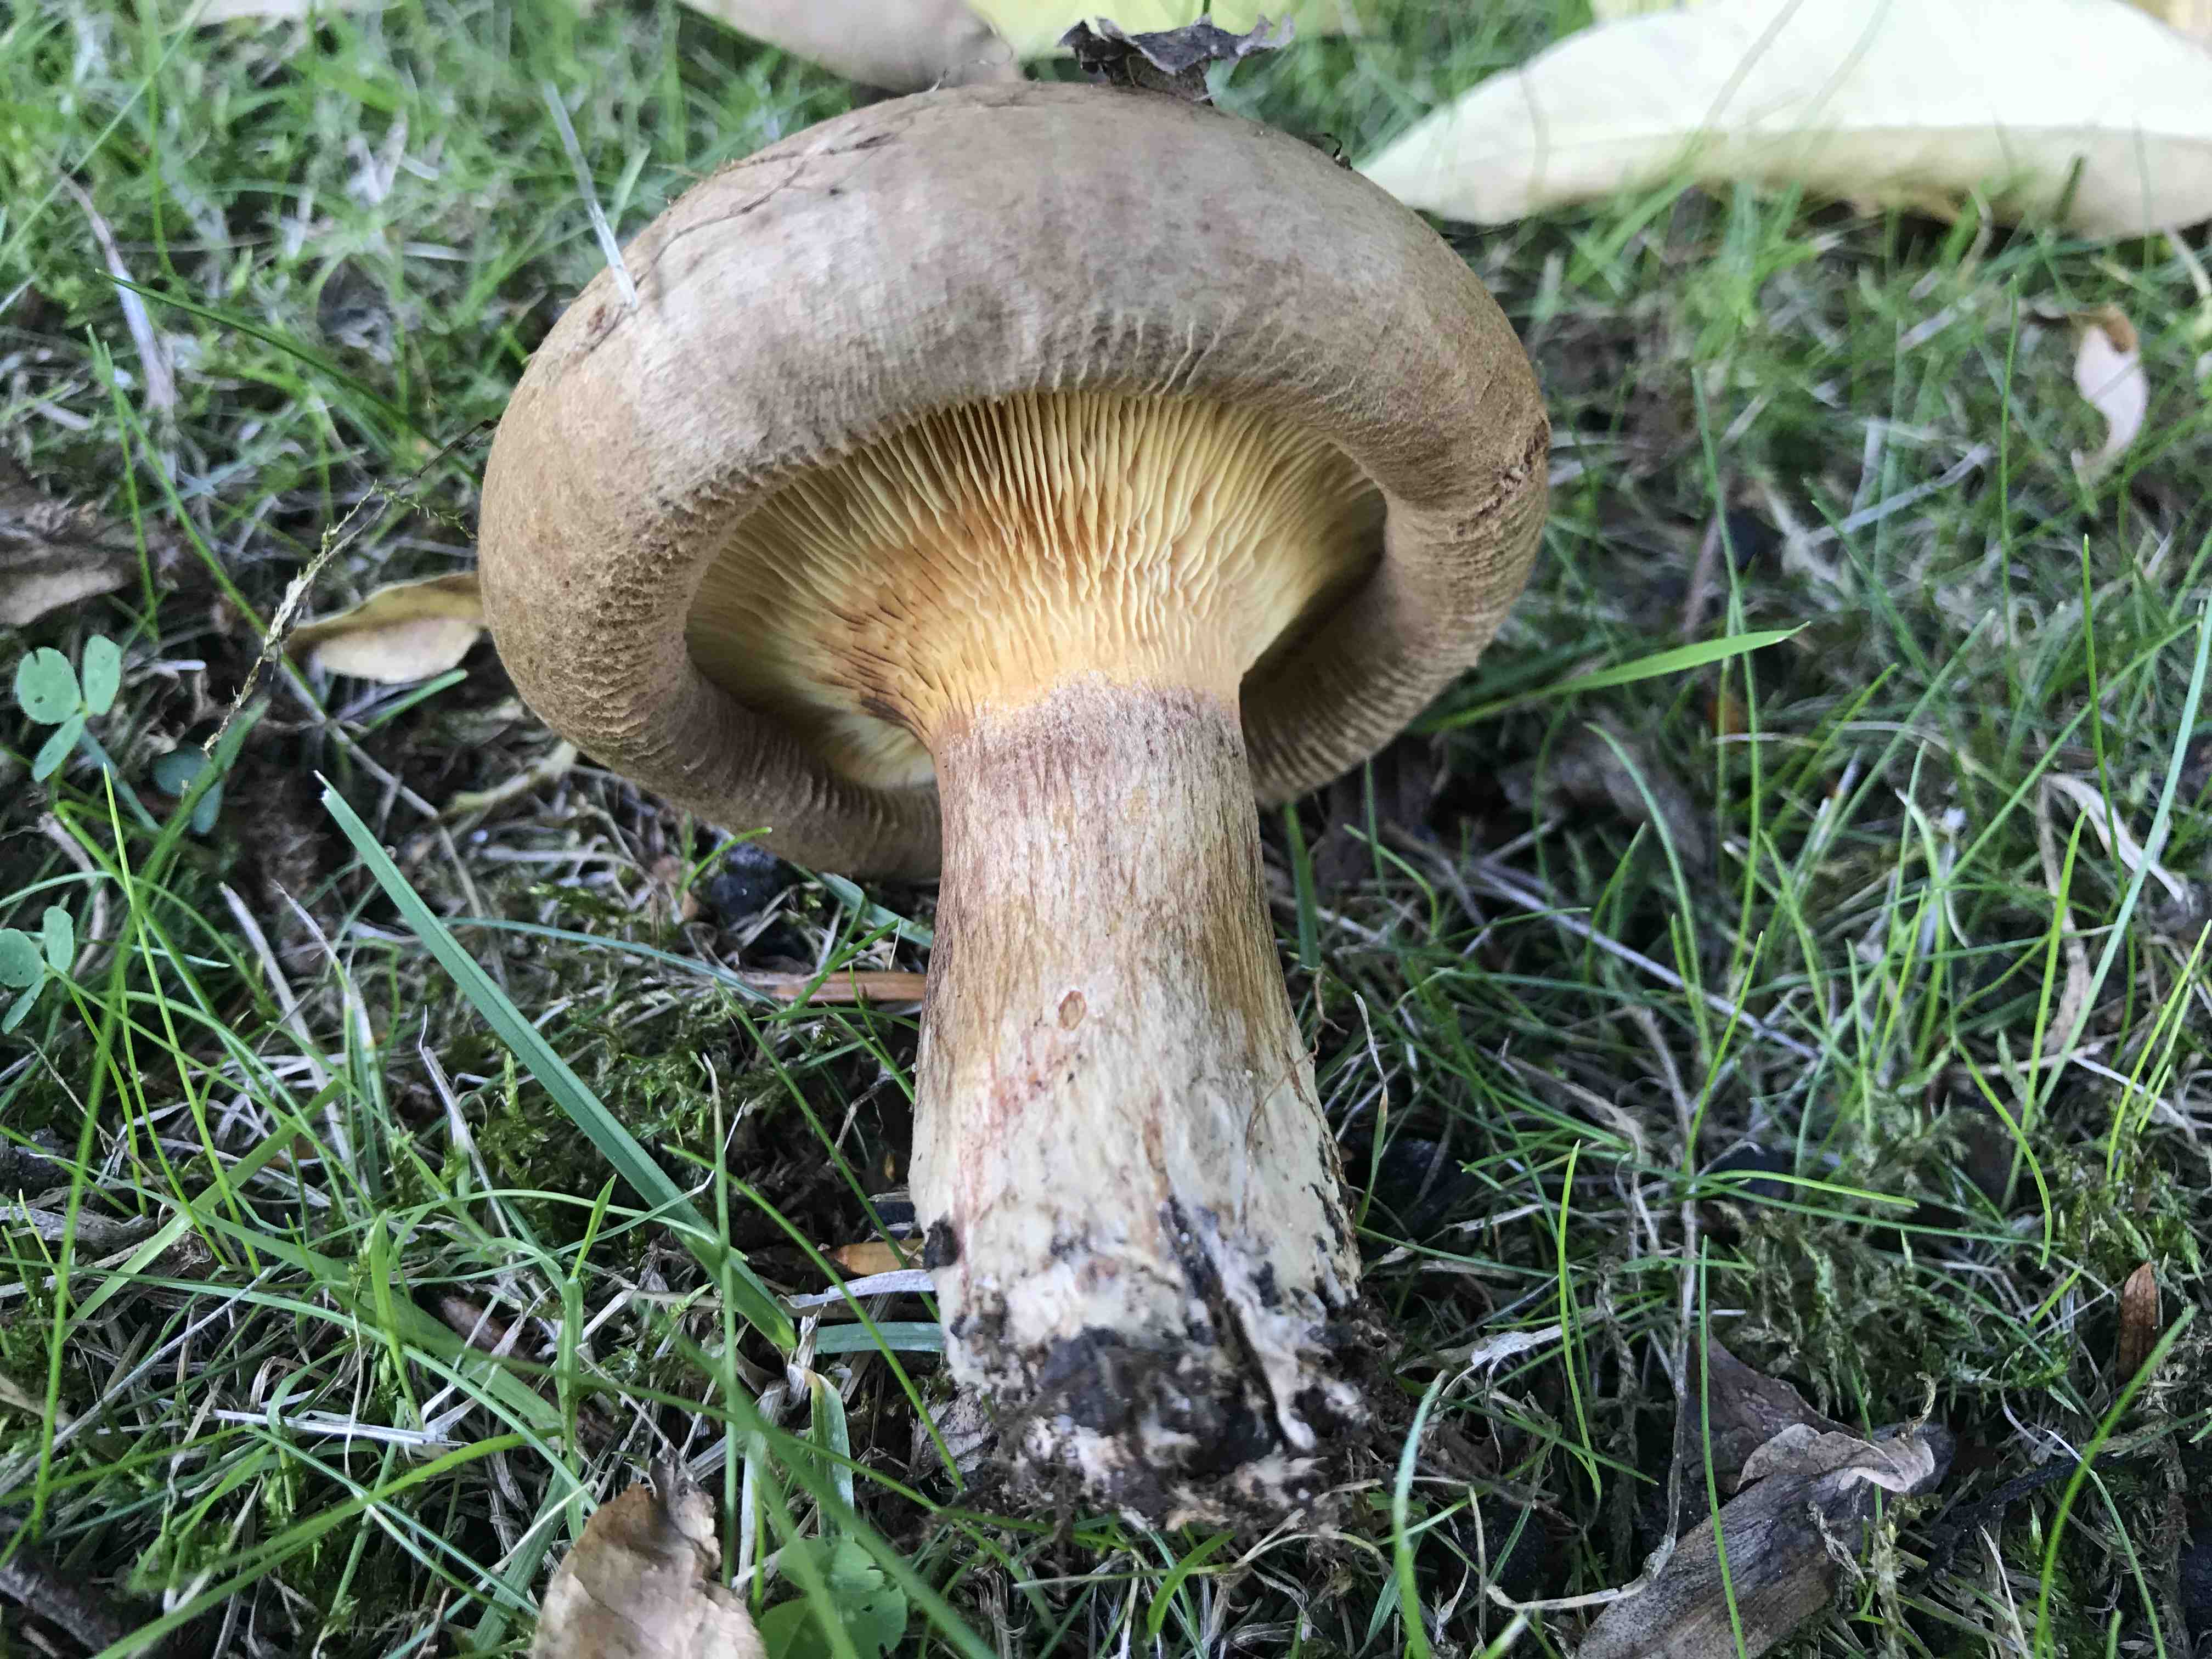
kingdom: Fungi
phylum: Basidiomycota
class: Agaricomycetes
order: Boletales
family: Paxillaceae
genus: Paxillus
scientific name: Paxillus involutus
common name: almindelig netbladhat
